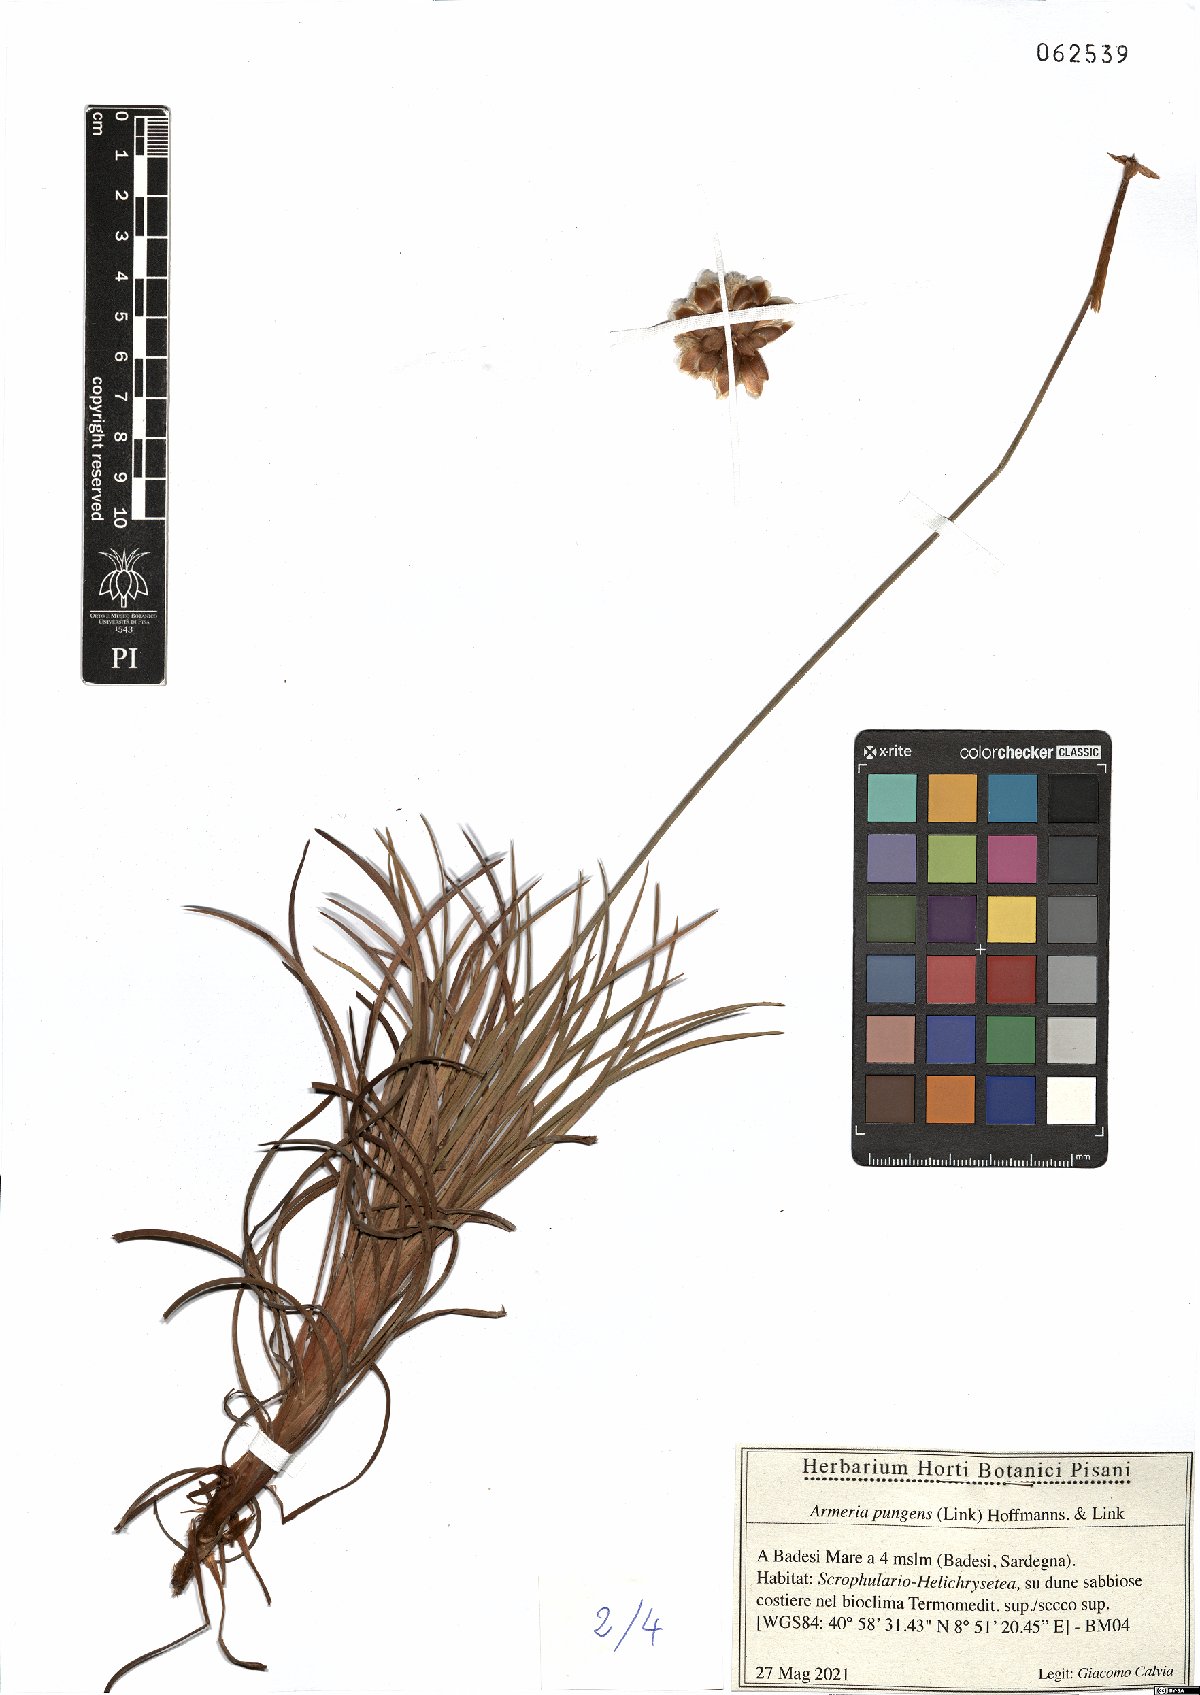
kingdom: Plantae
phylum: Tracheophyta
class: Magnoliopsida
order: Caryophyllales
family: Plumbaginaceae
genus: Armeria
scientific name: Armeria pungens
